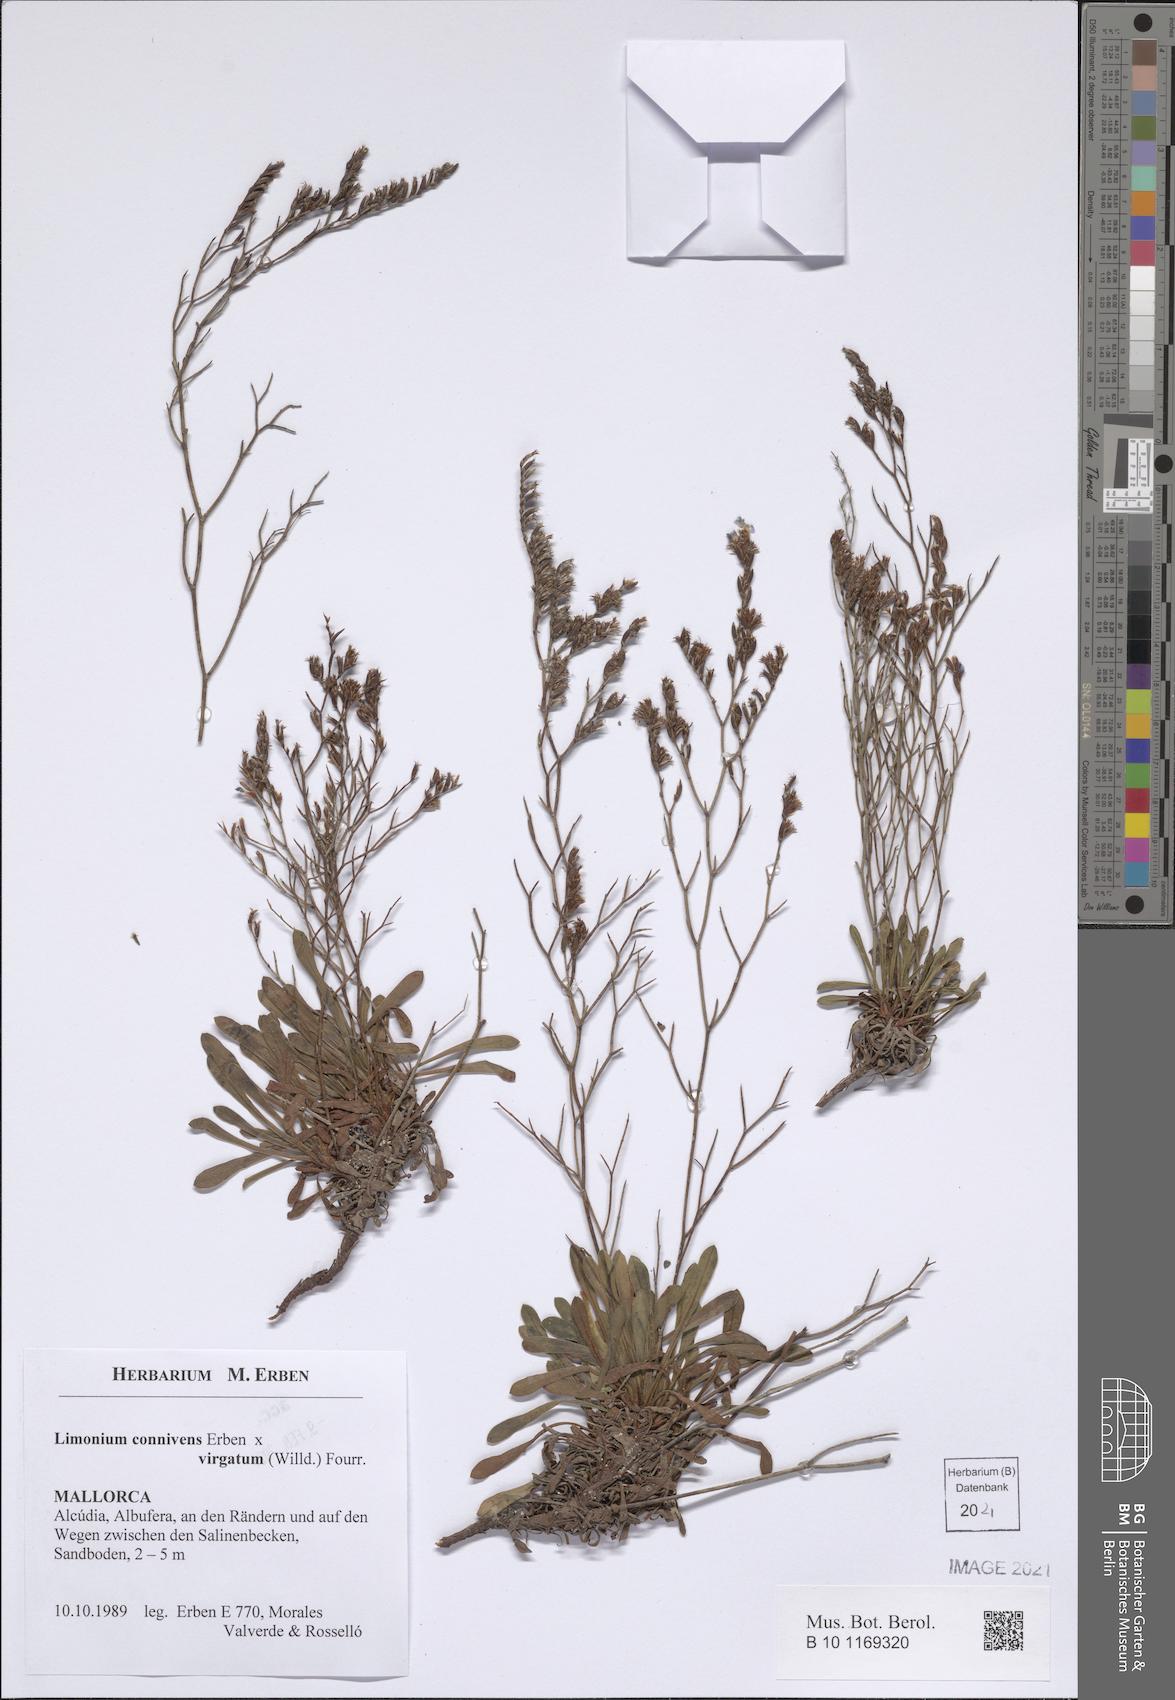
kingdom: Plantae
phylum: Tracheophyta
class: Magnoliopsida
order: Caryophyllales
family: Plumbaginaceae
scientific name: Plumbaginaceae
